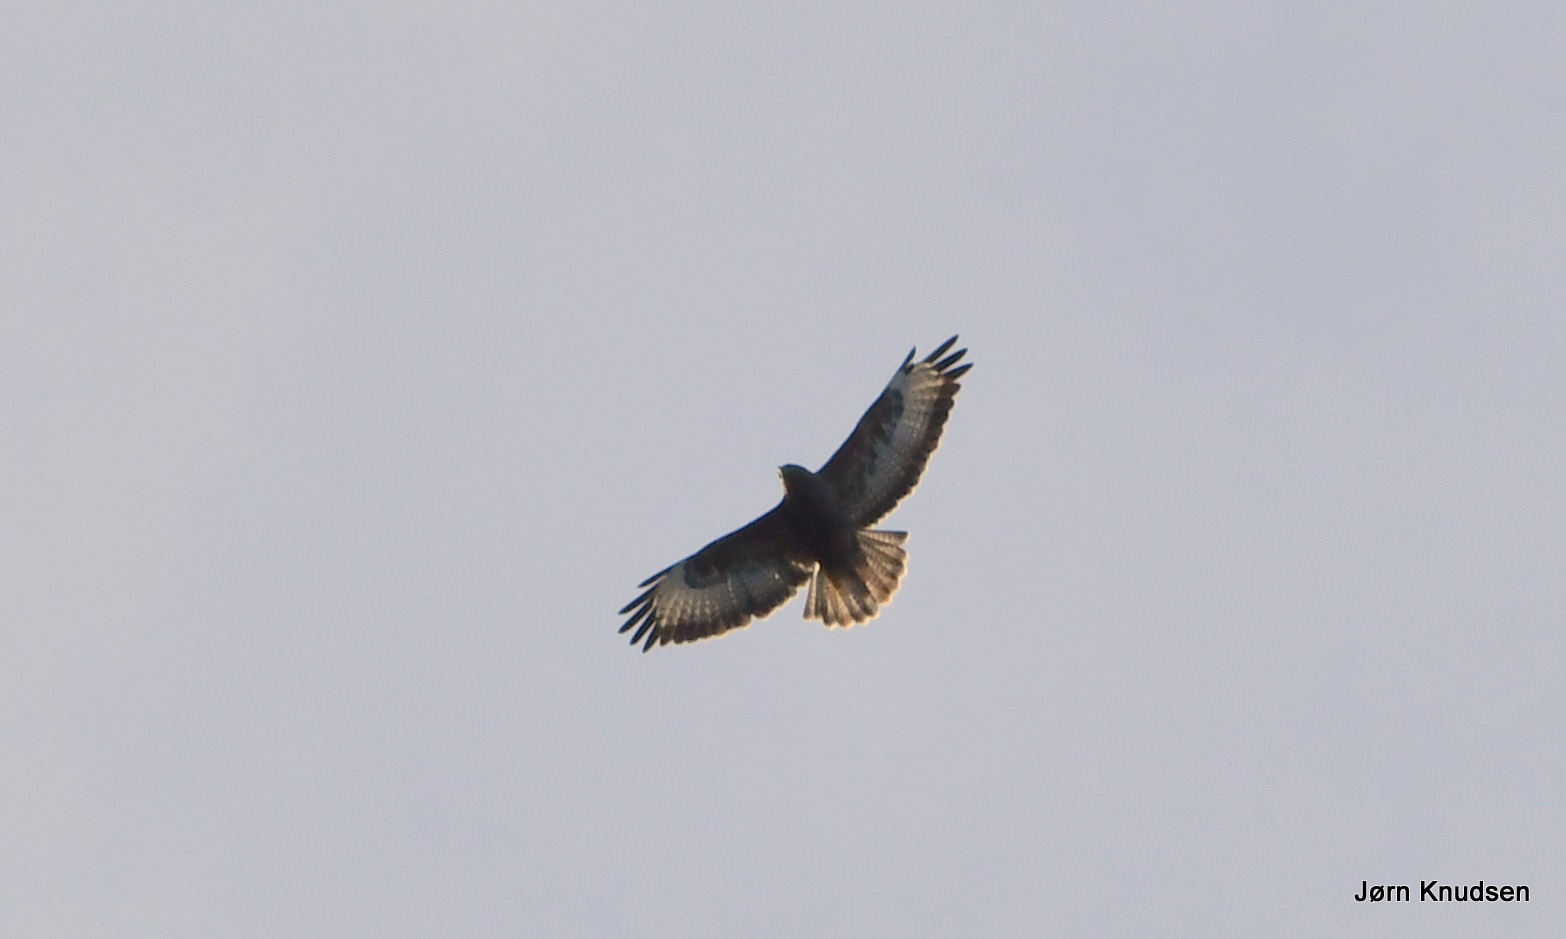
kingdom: Animalia
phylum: Chordata
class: Aves
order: Accipitriformes
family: Accipitridae
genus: Buteo
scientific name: Buteo buteo
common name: Musvåge
